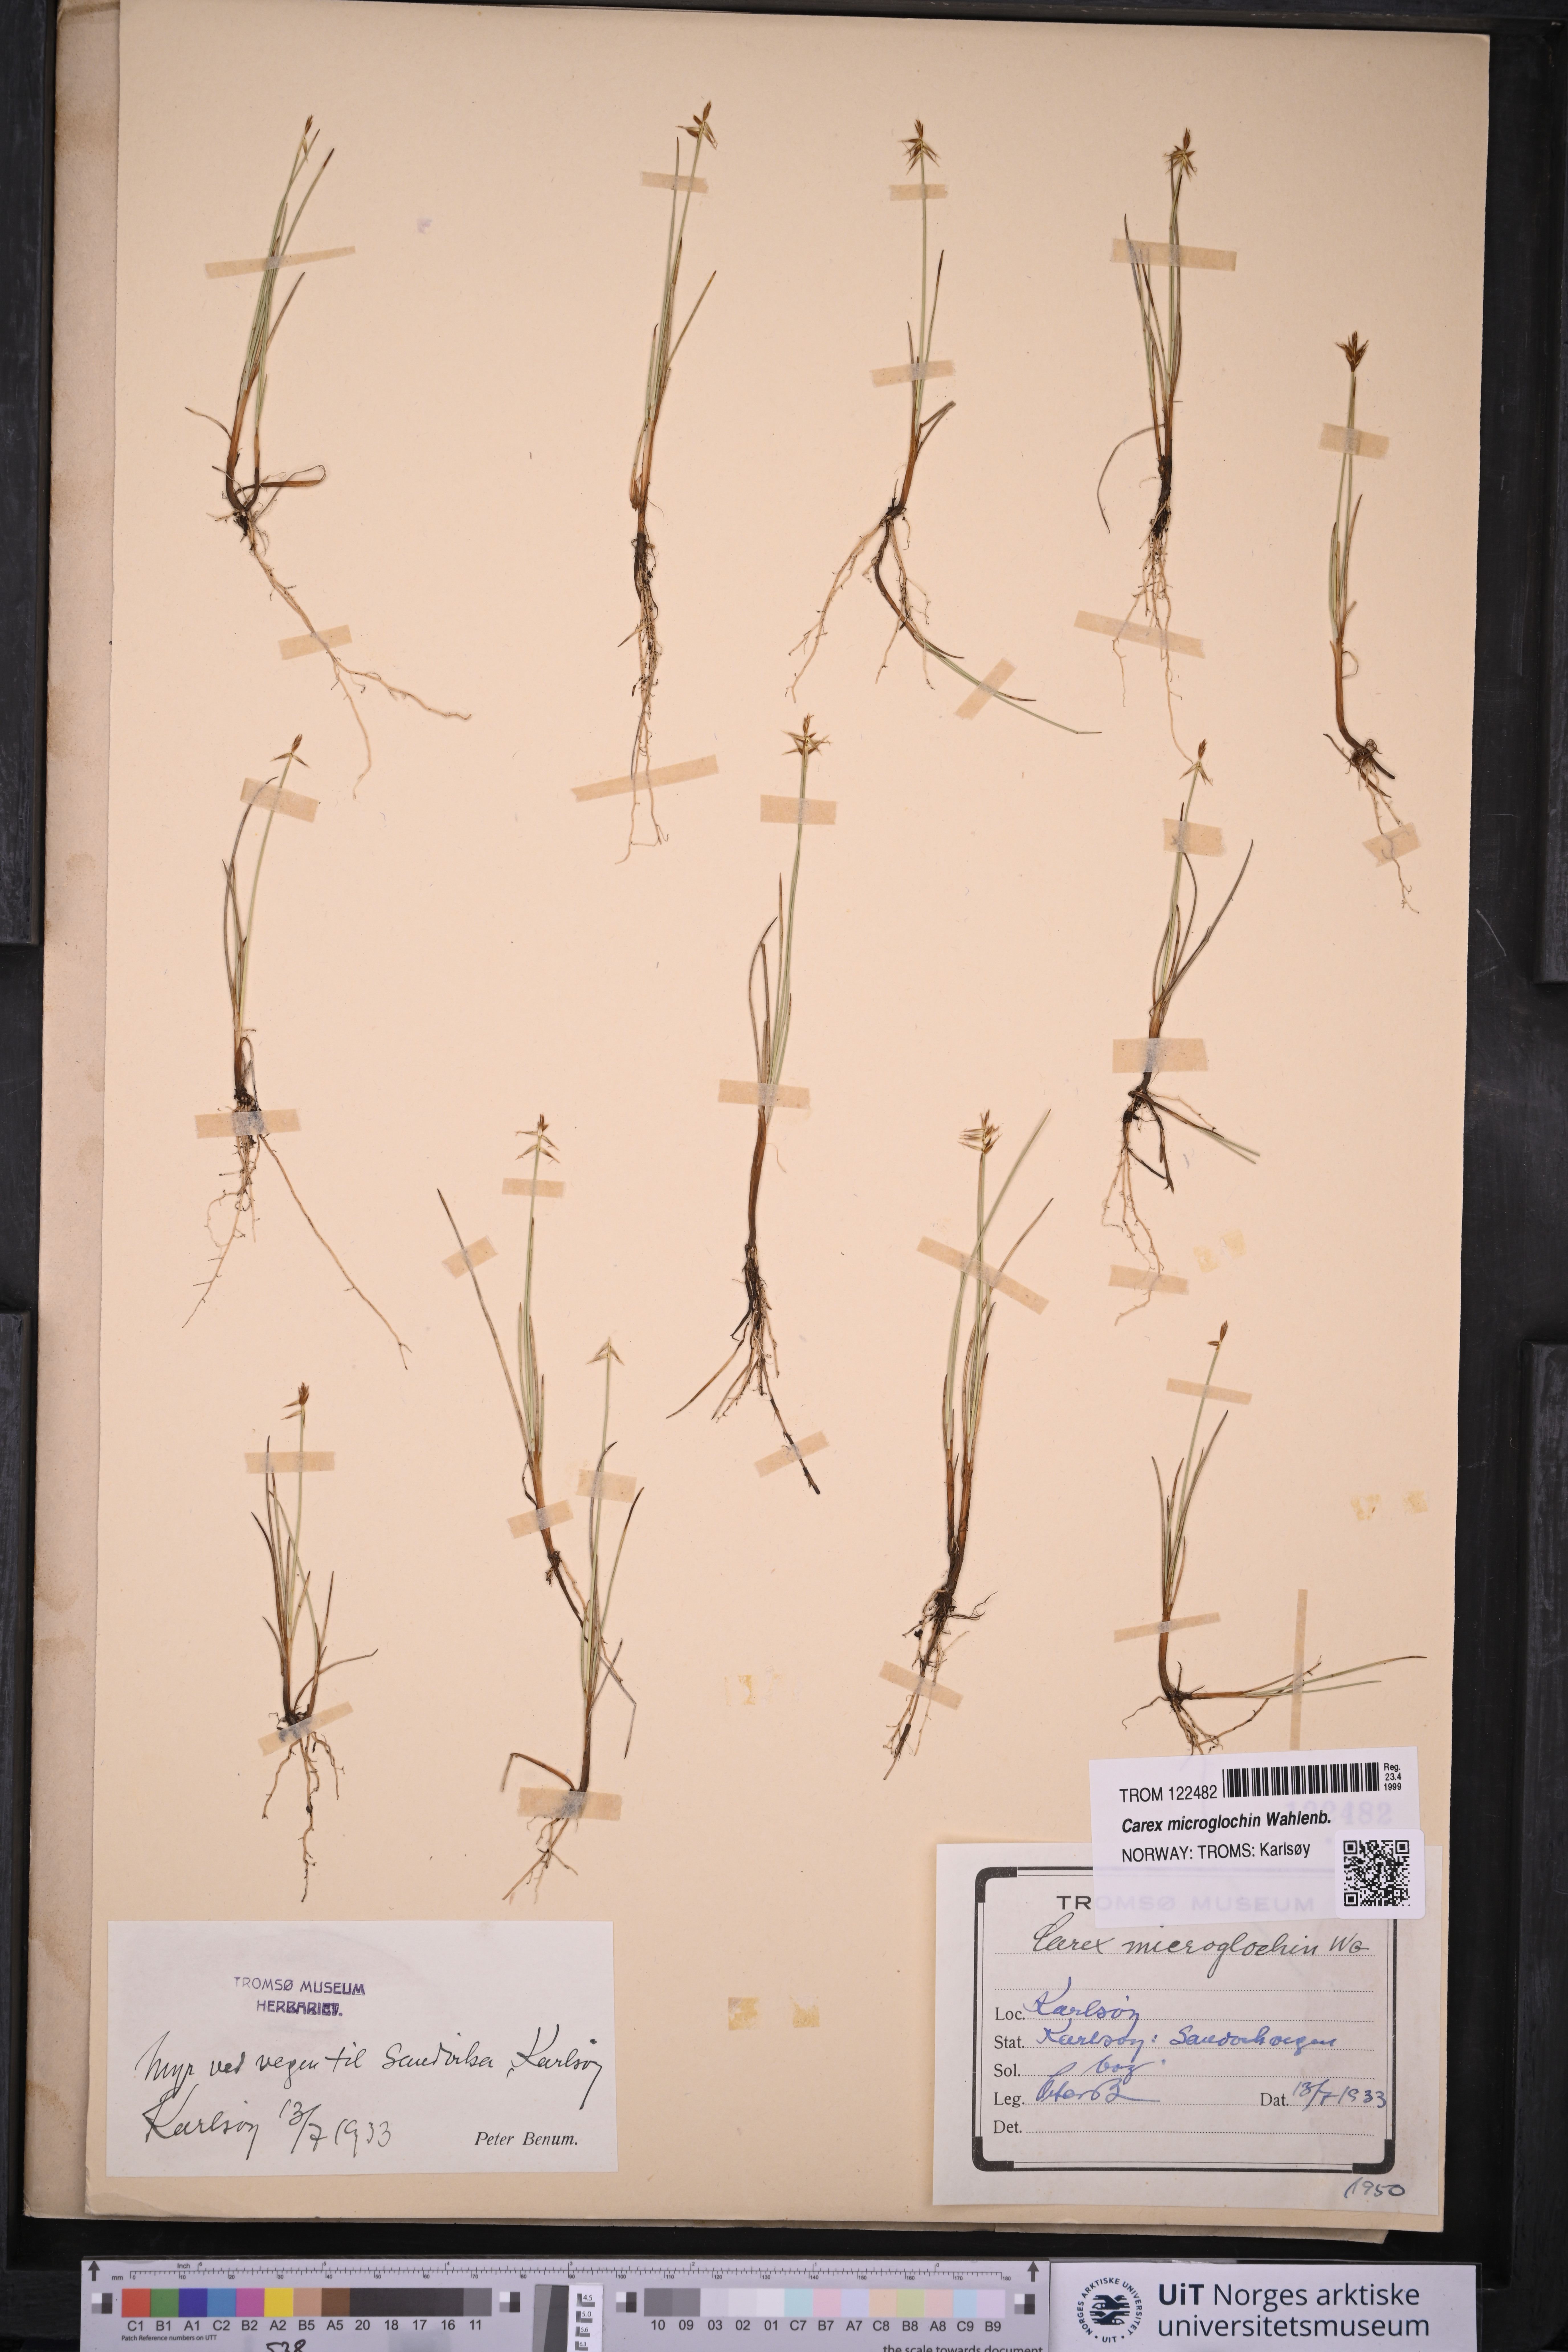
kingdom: Plantae
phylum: Tracheophyta
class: Liliopsida
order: Poales
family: Cyperaceae
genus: Carex
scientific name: Carex microglochin
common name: Bristle sedge
